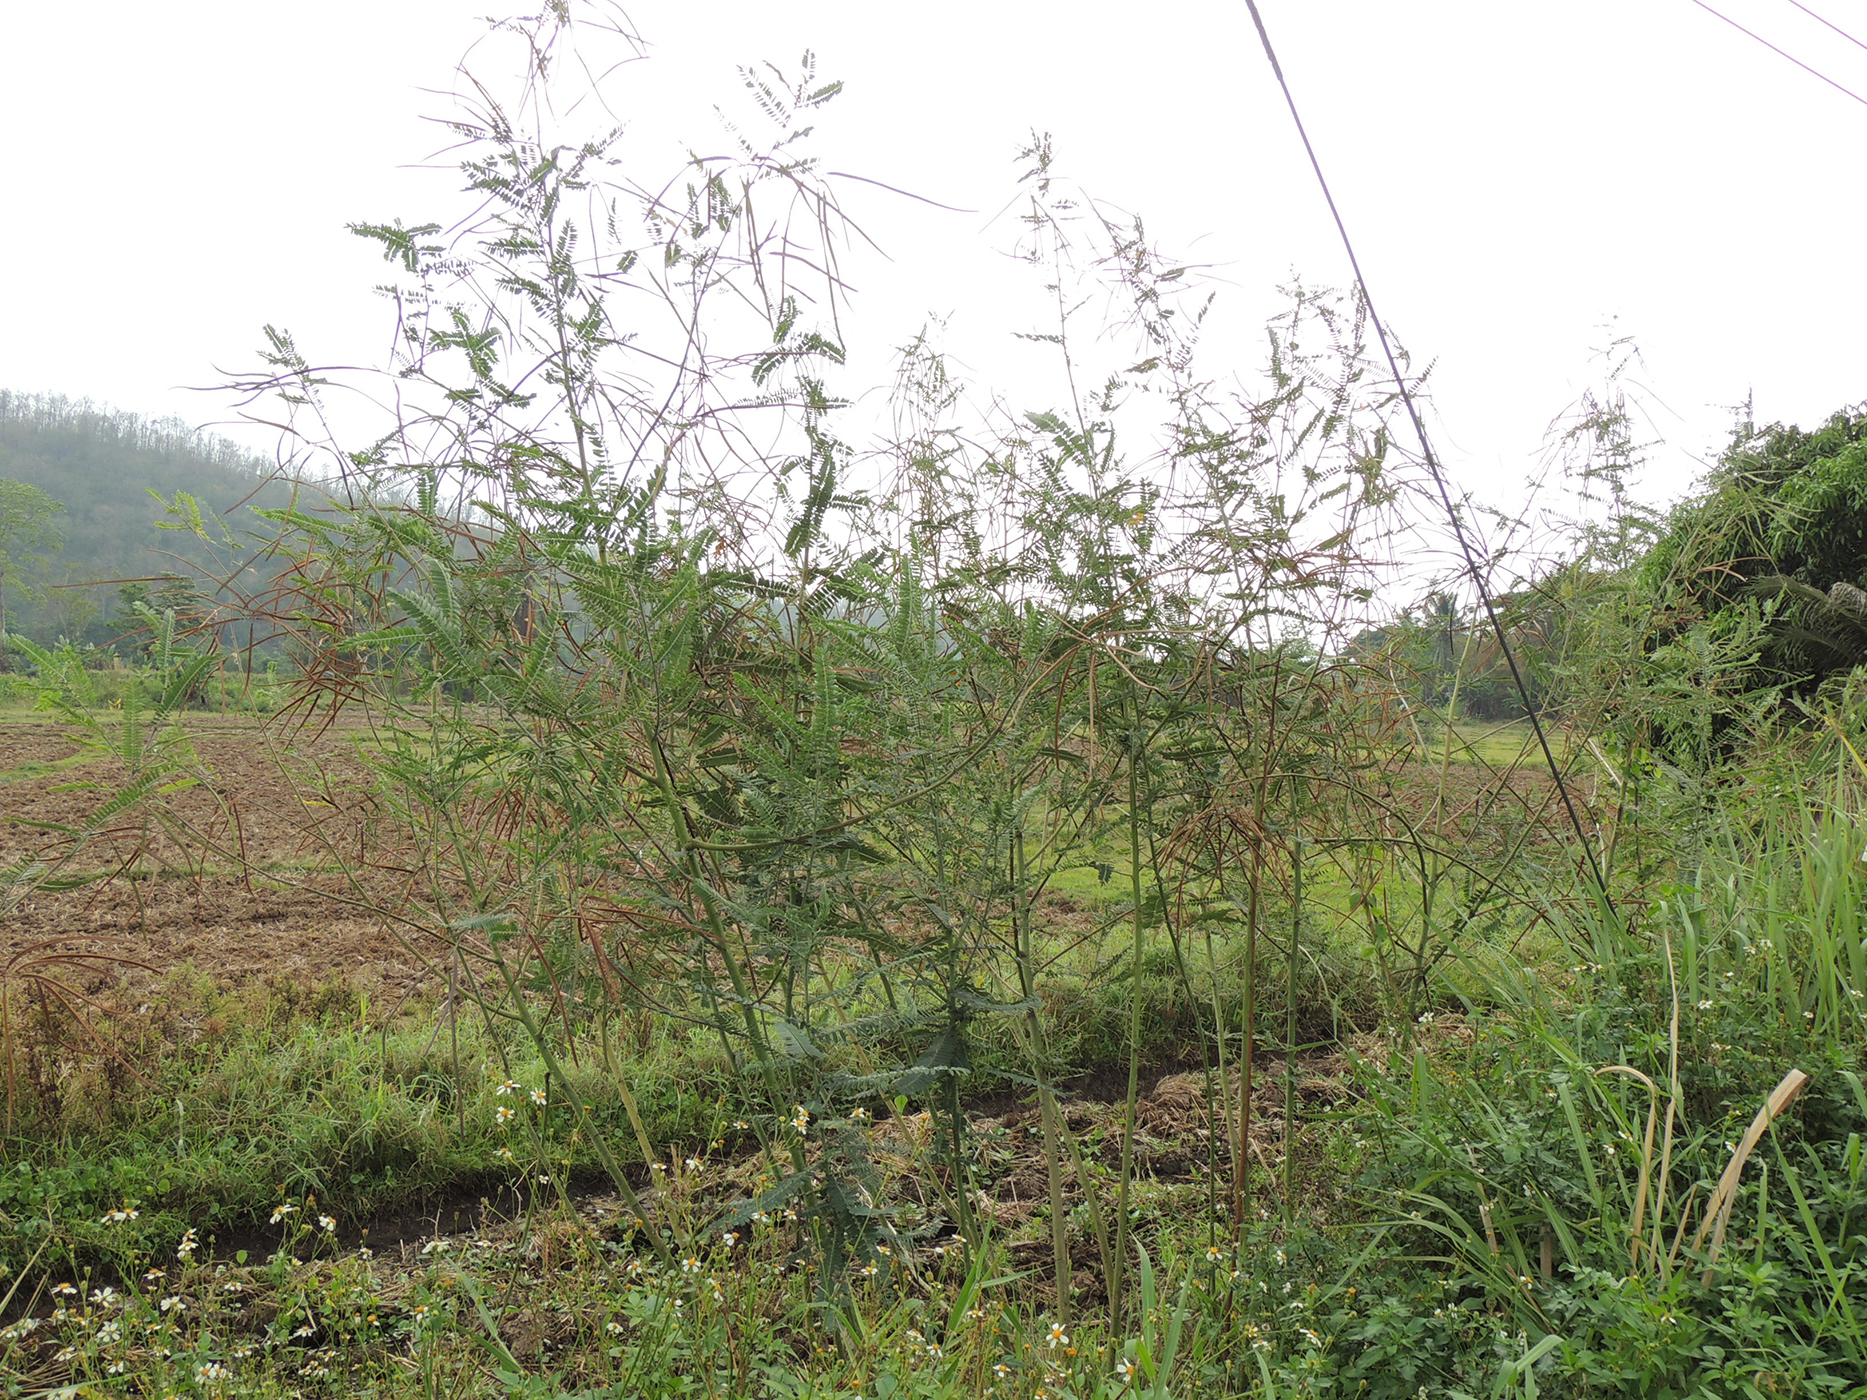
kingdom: Plantae
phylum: Tracheophyta
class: Magnoliopsida
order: Fabales
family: Fabaceae
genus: Sesbania
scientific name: Sesbania speciosa
